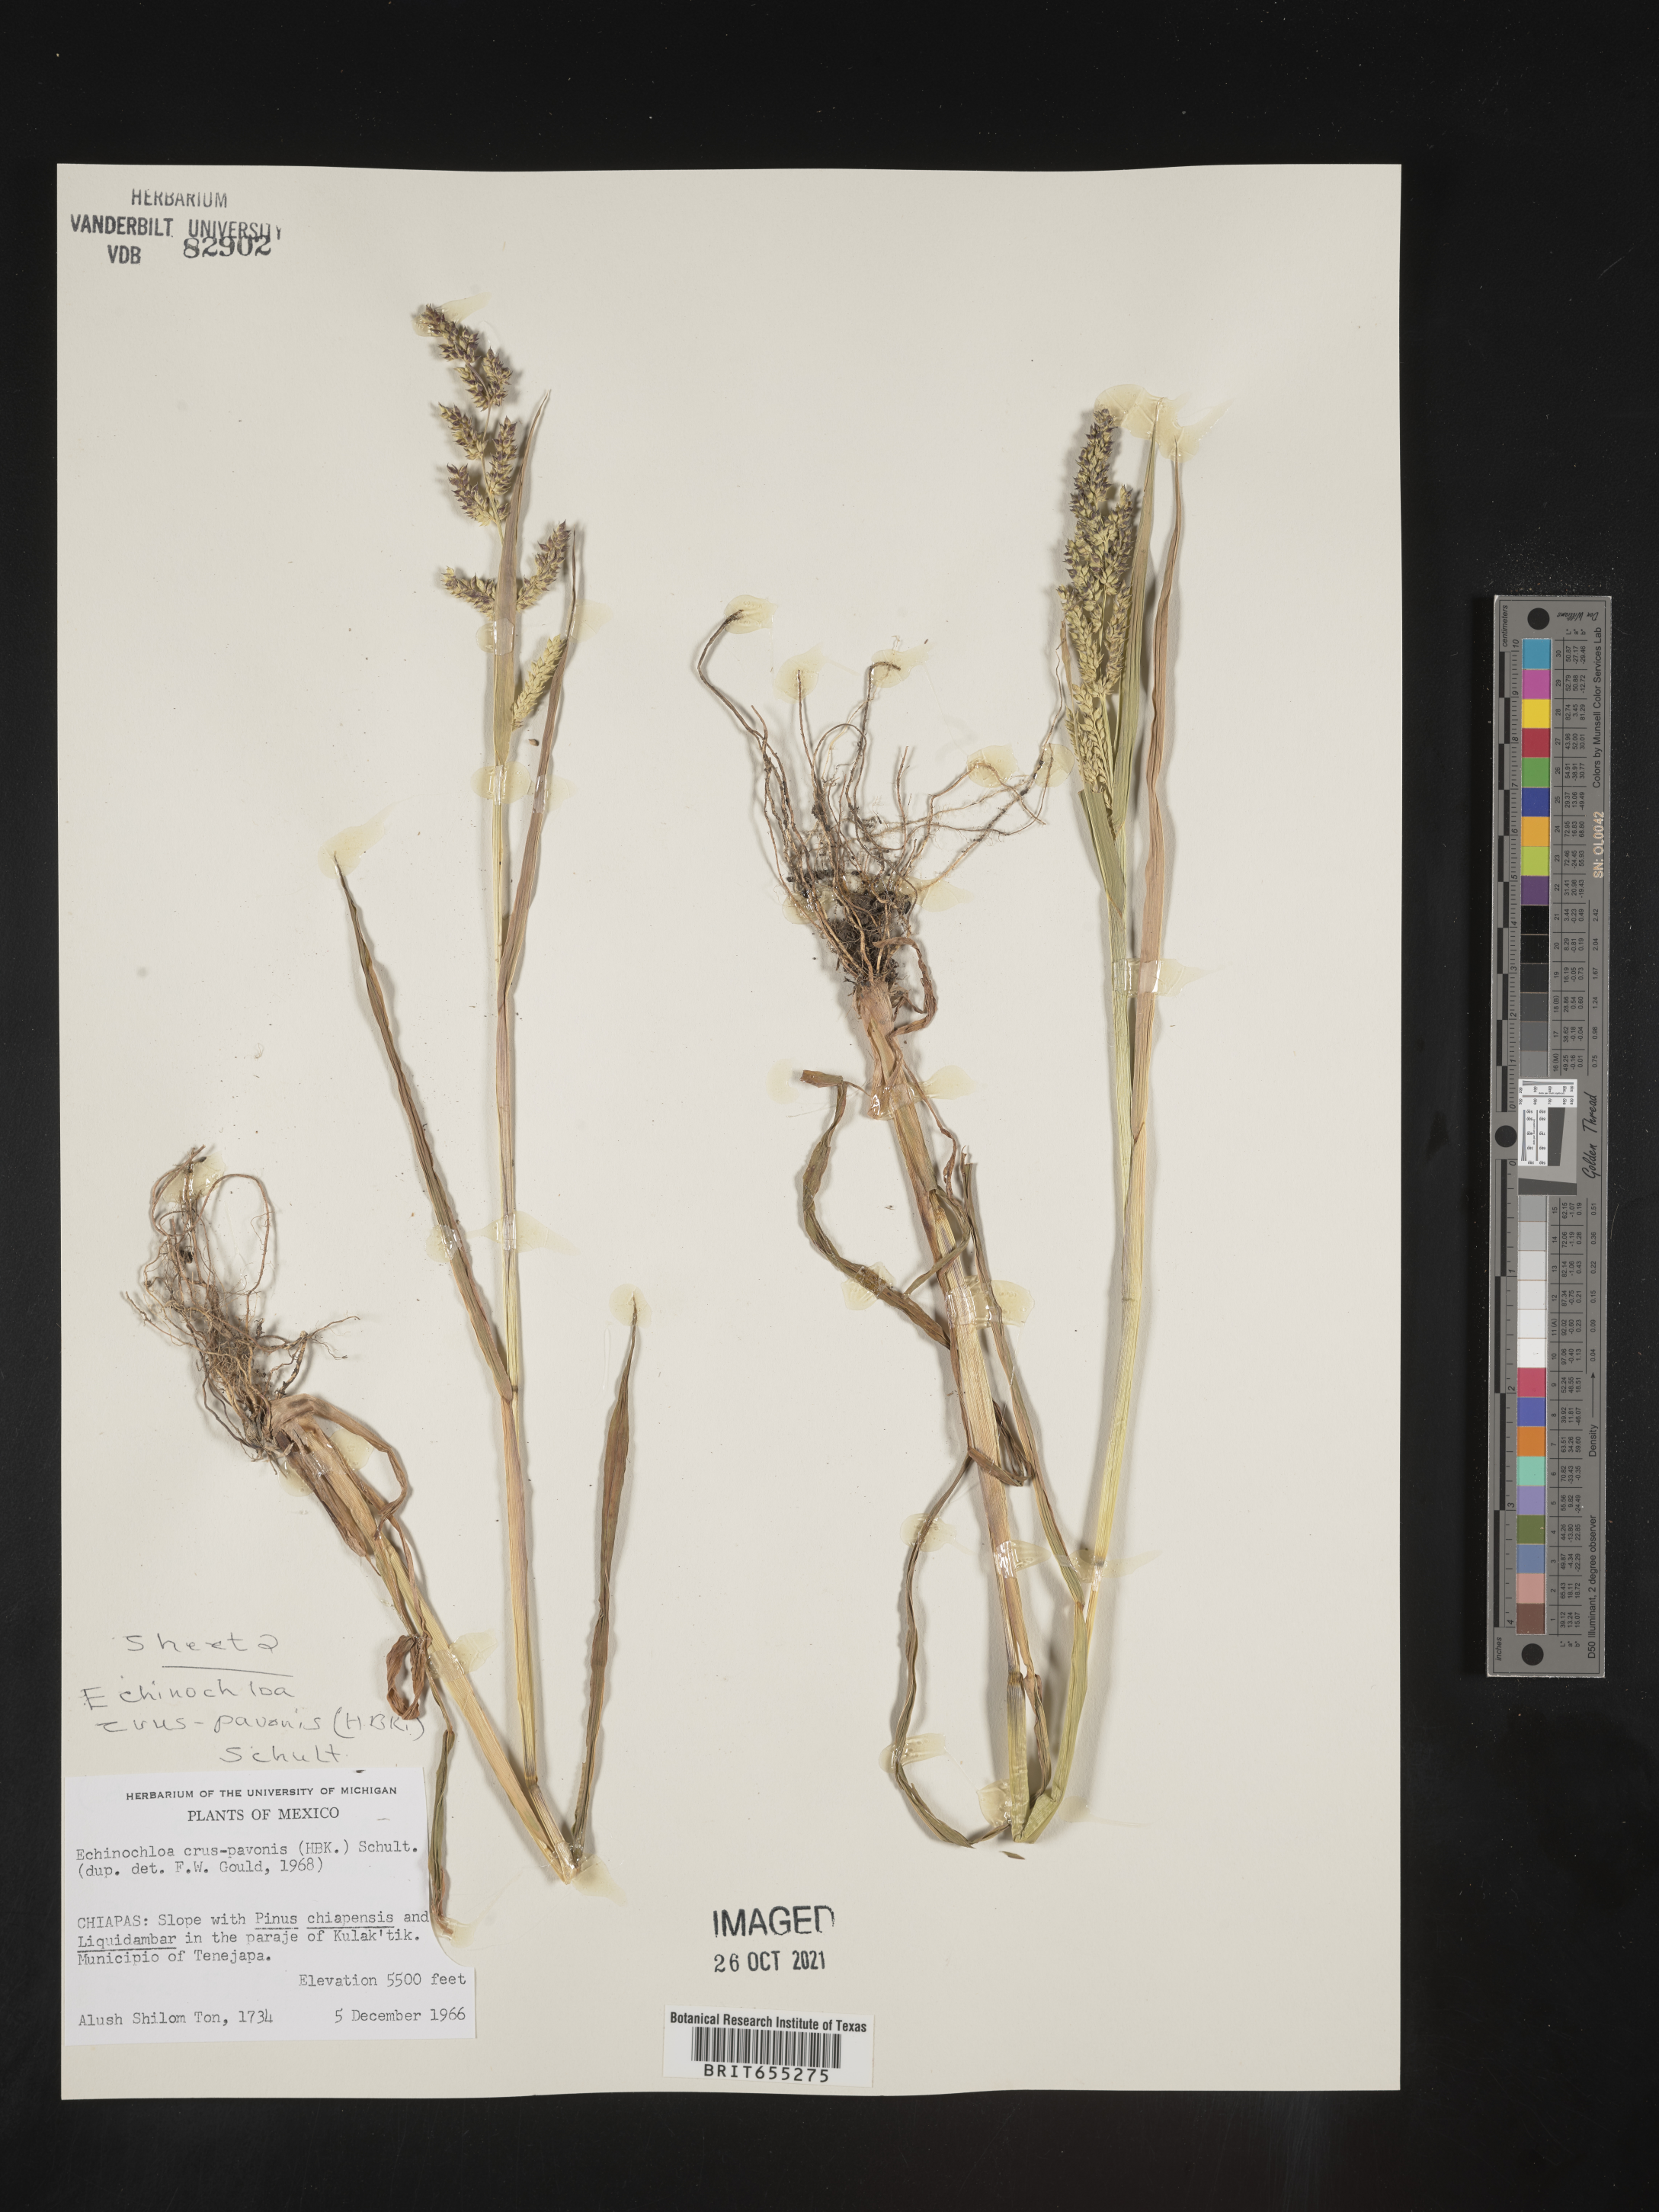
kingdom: Plantae
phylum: Tracheophyta
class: Liliopsida
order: Poales
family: Poaceae
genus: Echinochloa
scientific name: Echinochloa
